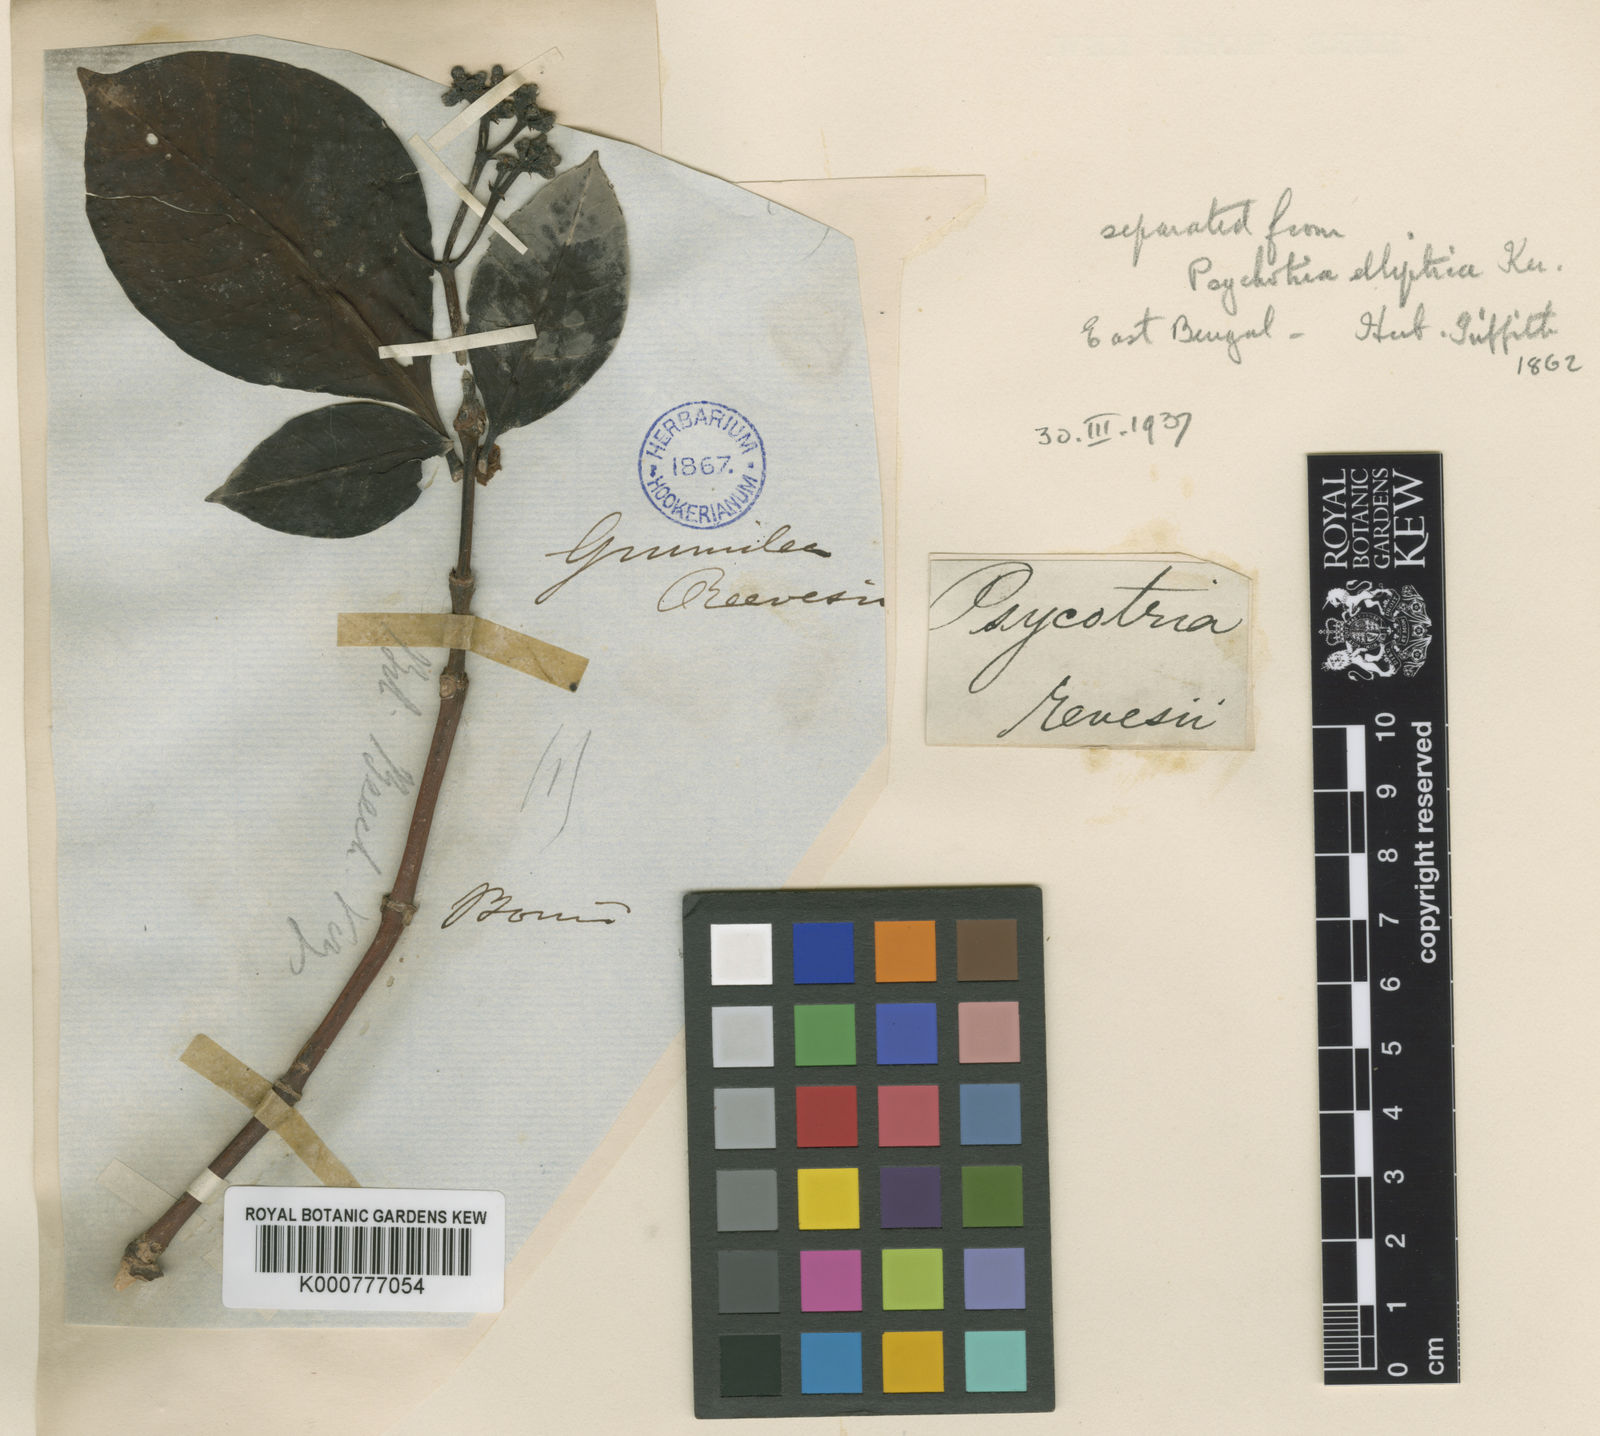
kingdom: Plantae
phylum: Tracheophyta
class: Magnoliopsida
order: Gentianales
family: Rubiaceae
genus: Psychotria
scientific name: Psychotria euneura
